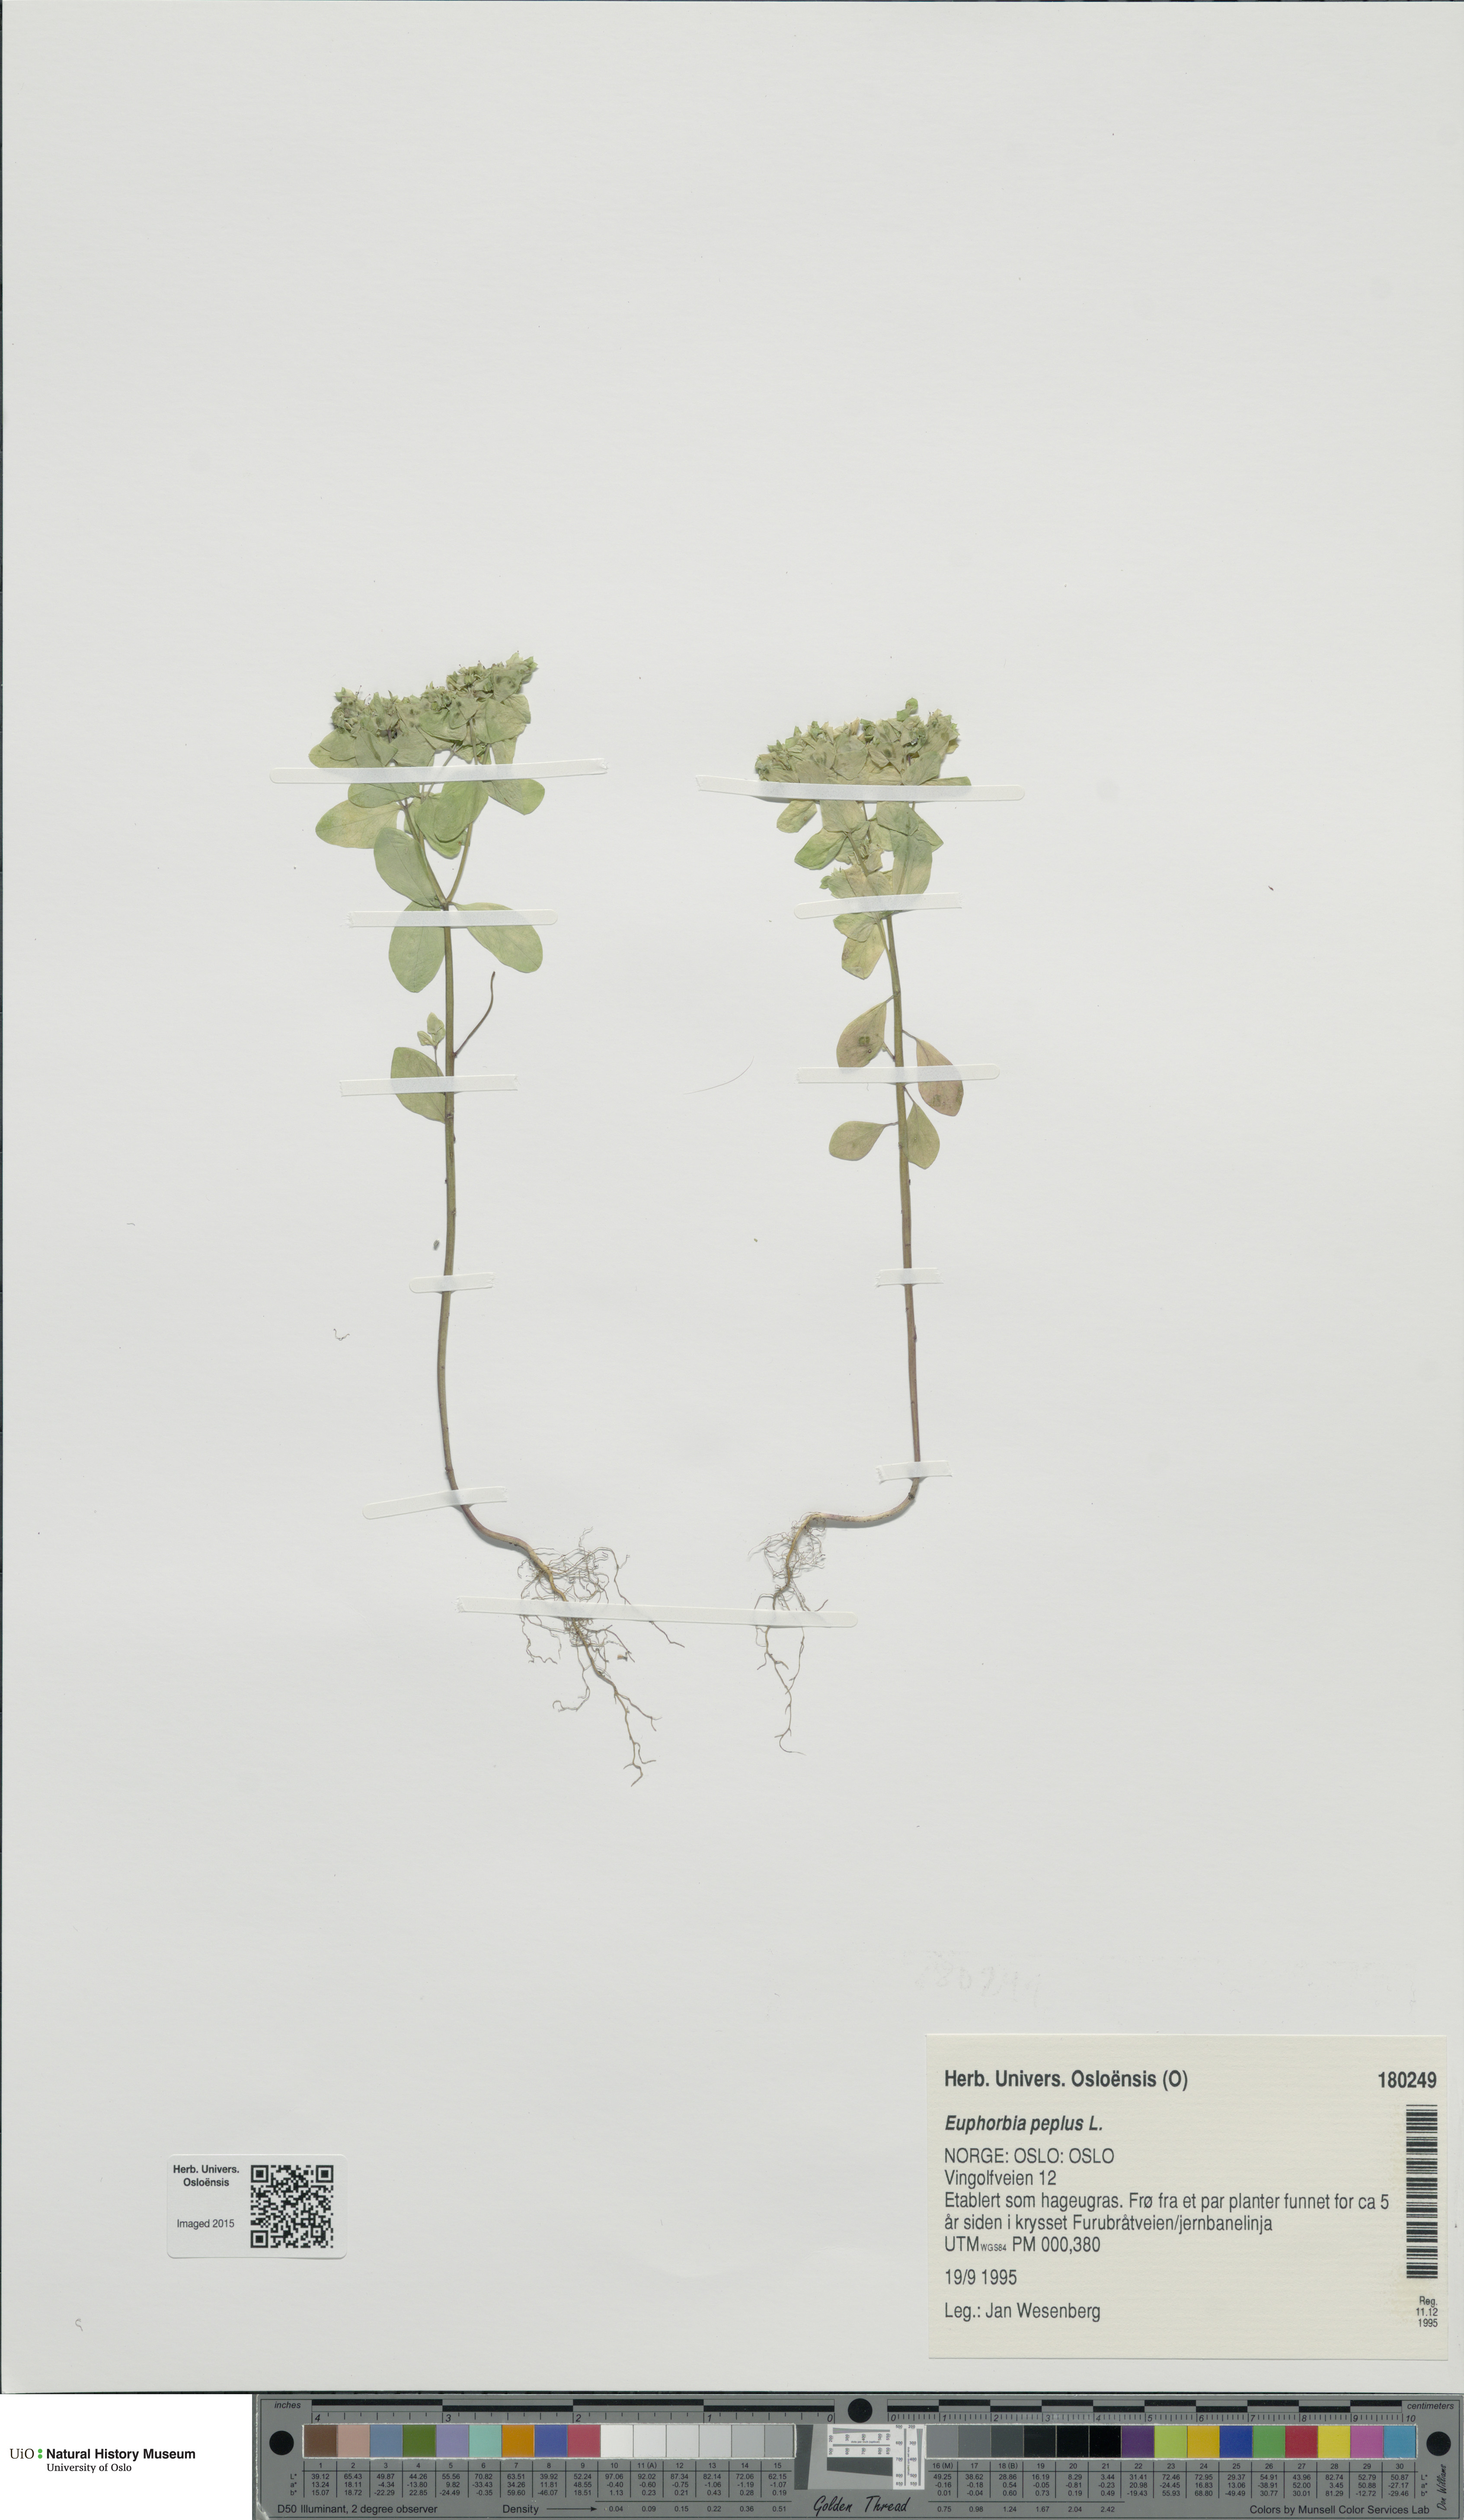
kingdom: Plantae
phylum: Tracheophyta
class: Magnoliopsida
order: Malpighiales
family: Euphorbiaceae
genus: Euphorbia
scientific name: Euphorbia peplus
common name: Petty spurge
